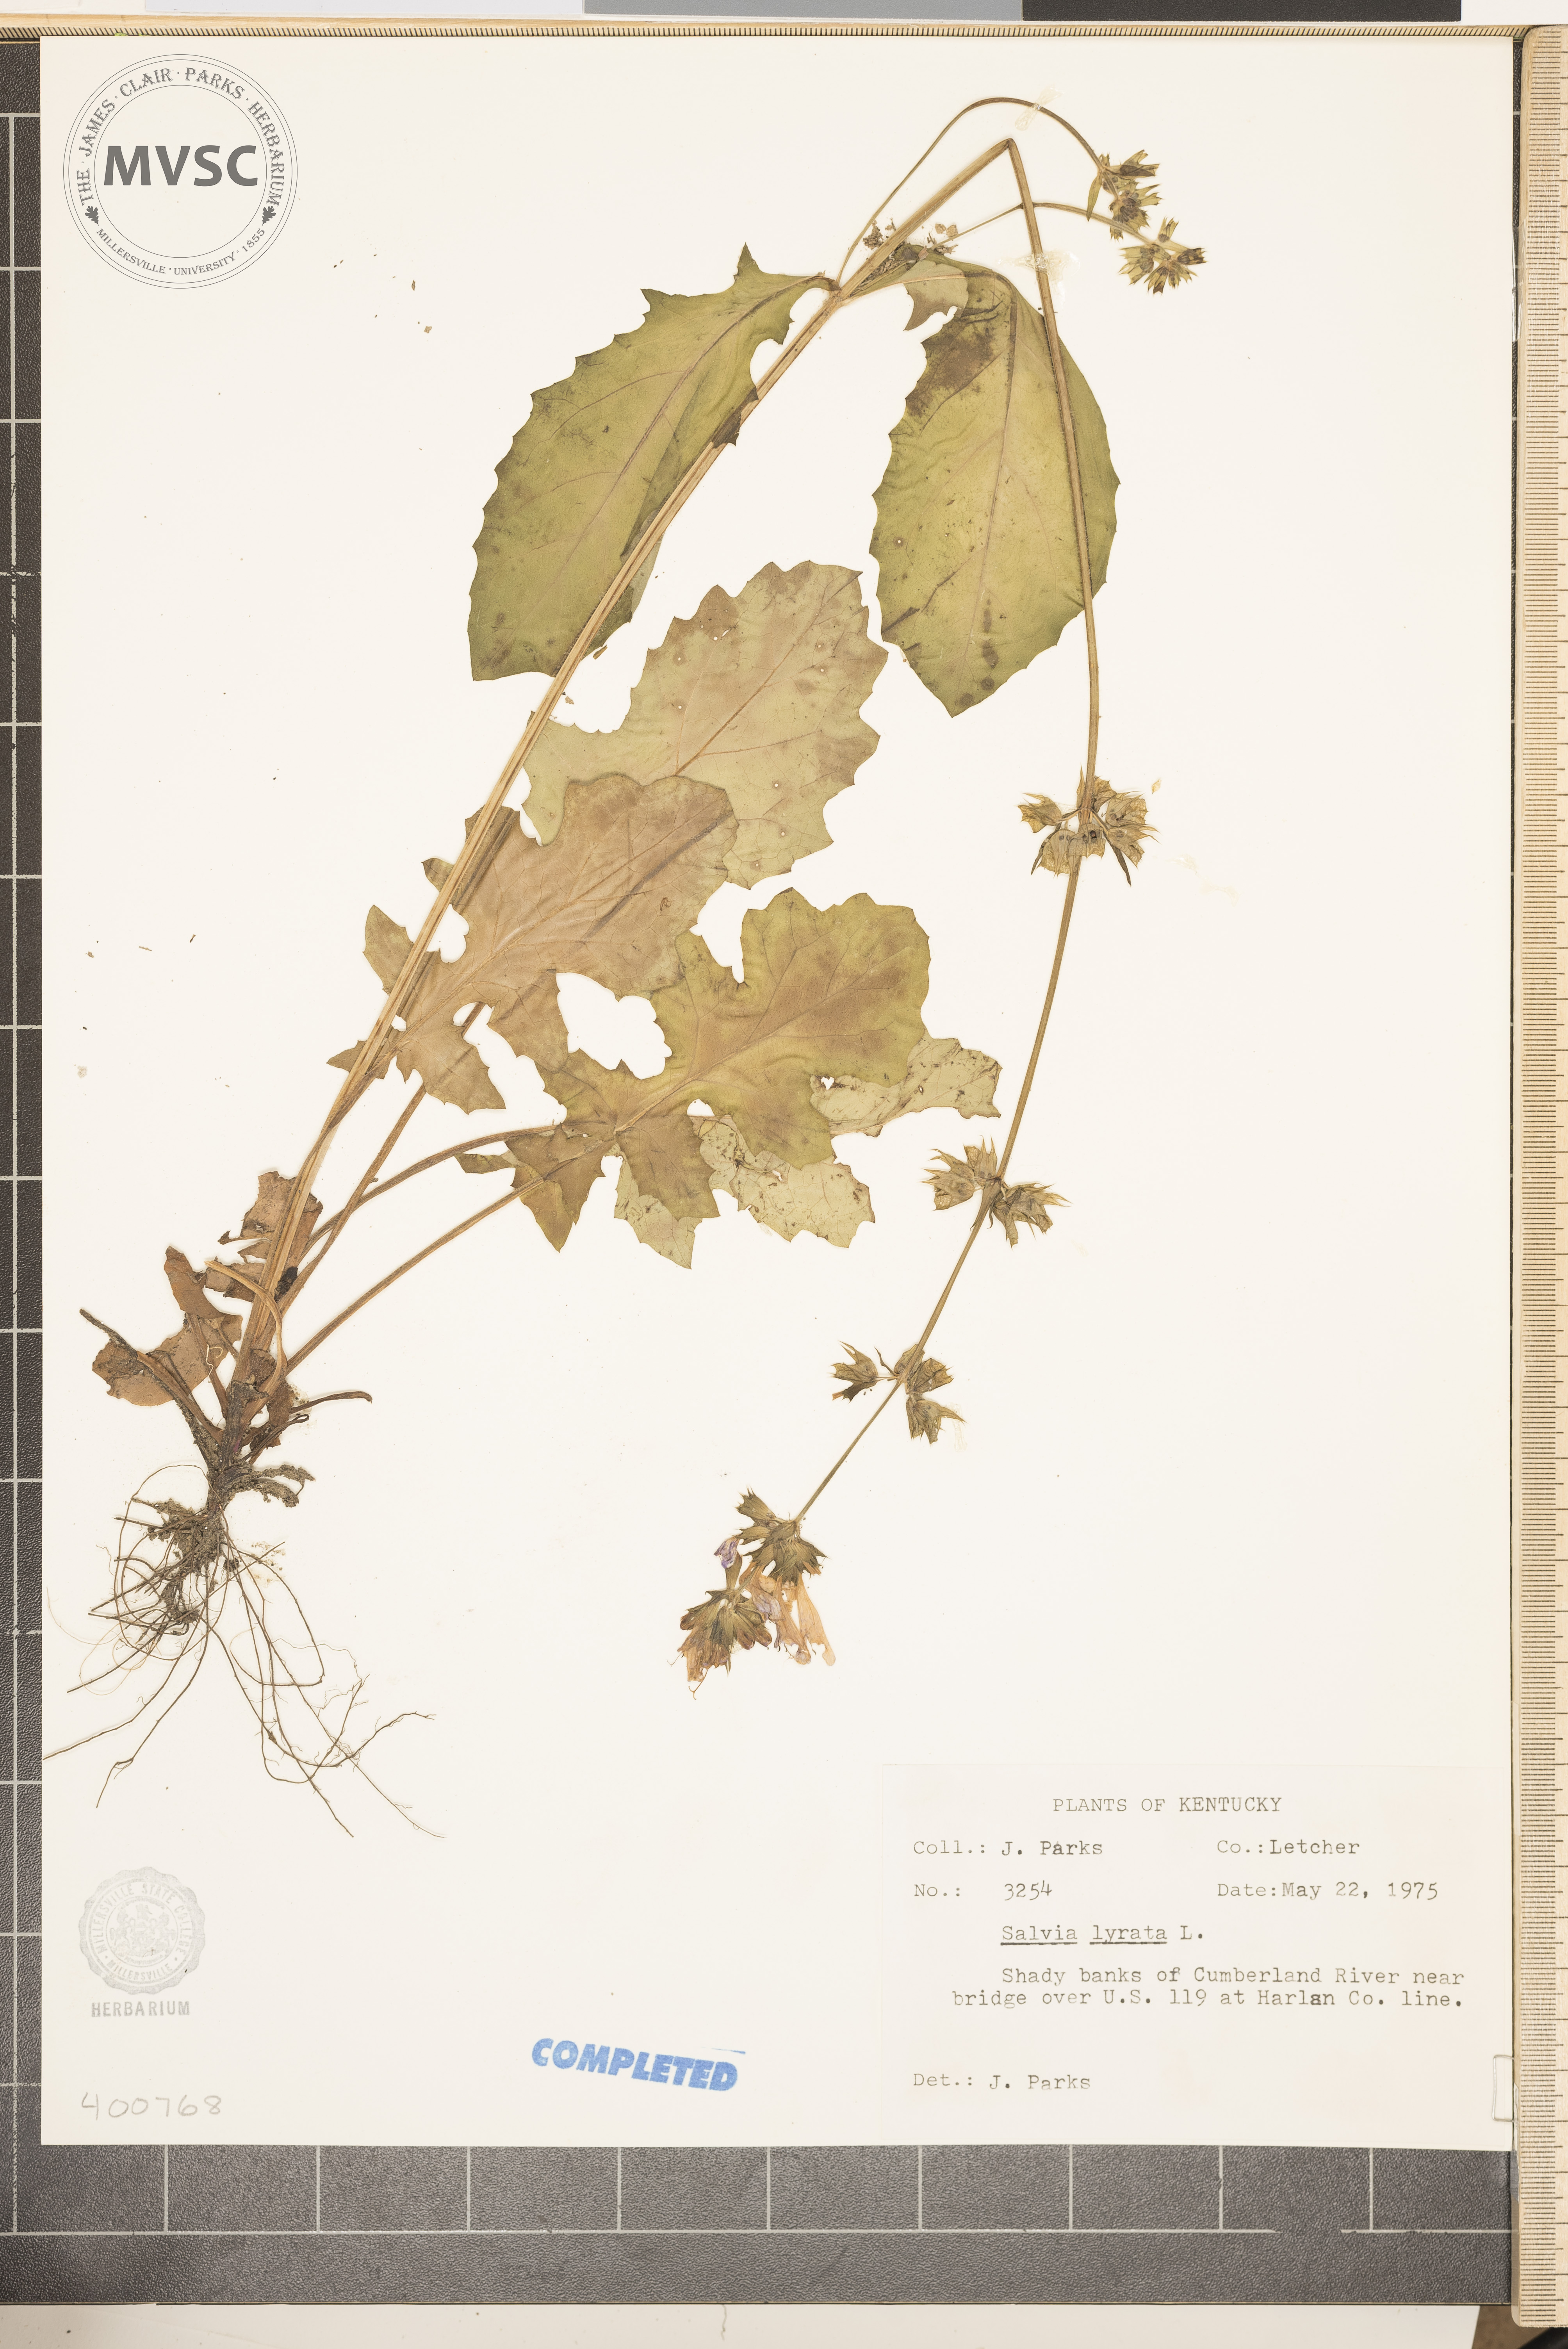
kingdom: Plantae
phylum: Tracheophyta
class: Magnoliopsida
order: Lamiales
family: Lamiaceae
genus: Salvia
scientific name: Salvia lyrata
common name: salvia
